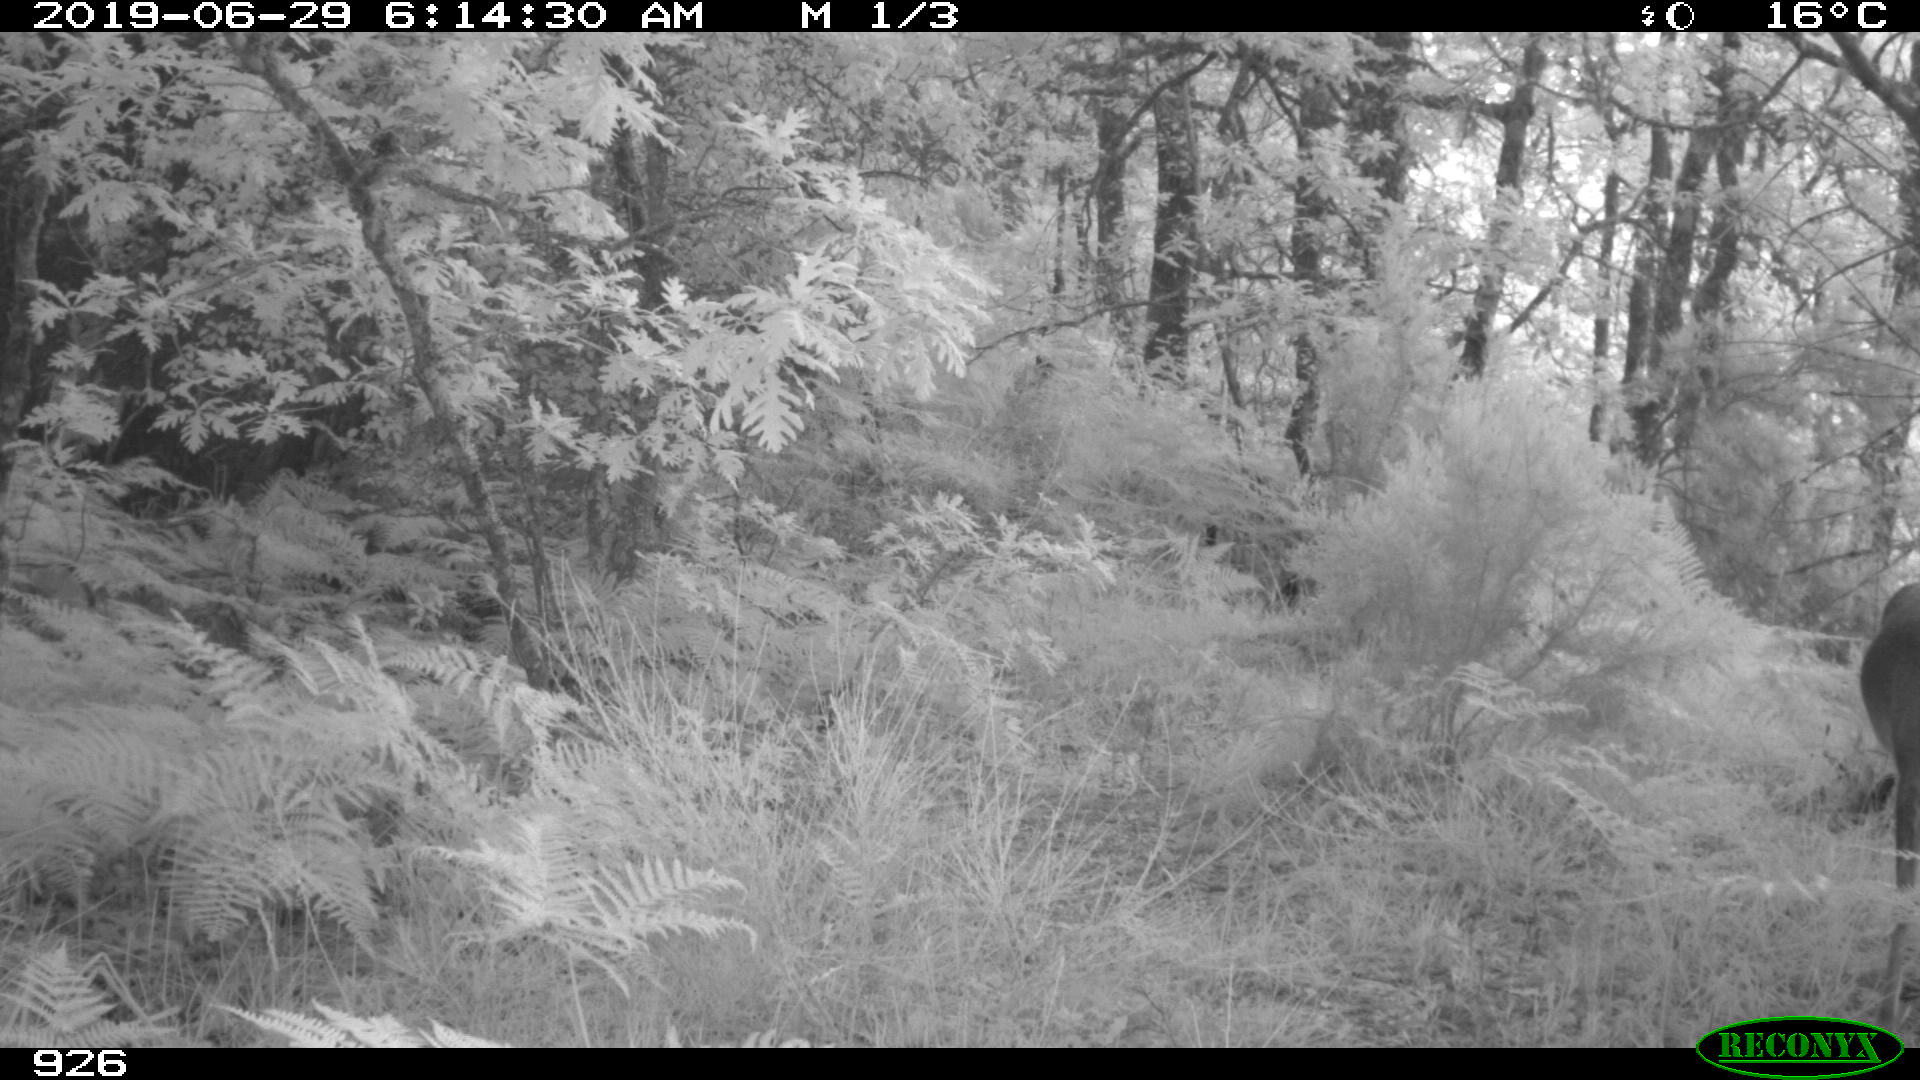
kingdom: Animalia
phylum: Chordata
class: Mammalia
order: Artiodactyla
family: Cervidae
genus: Capreolus
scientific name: Capreolus capreolus
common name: Western roe deer
